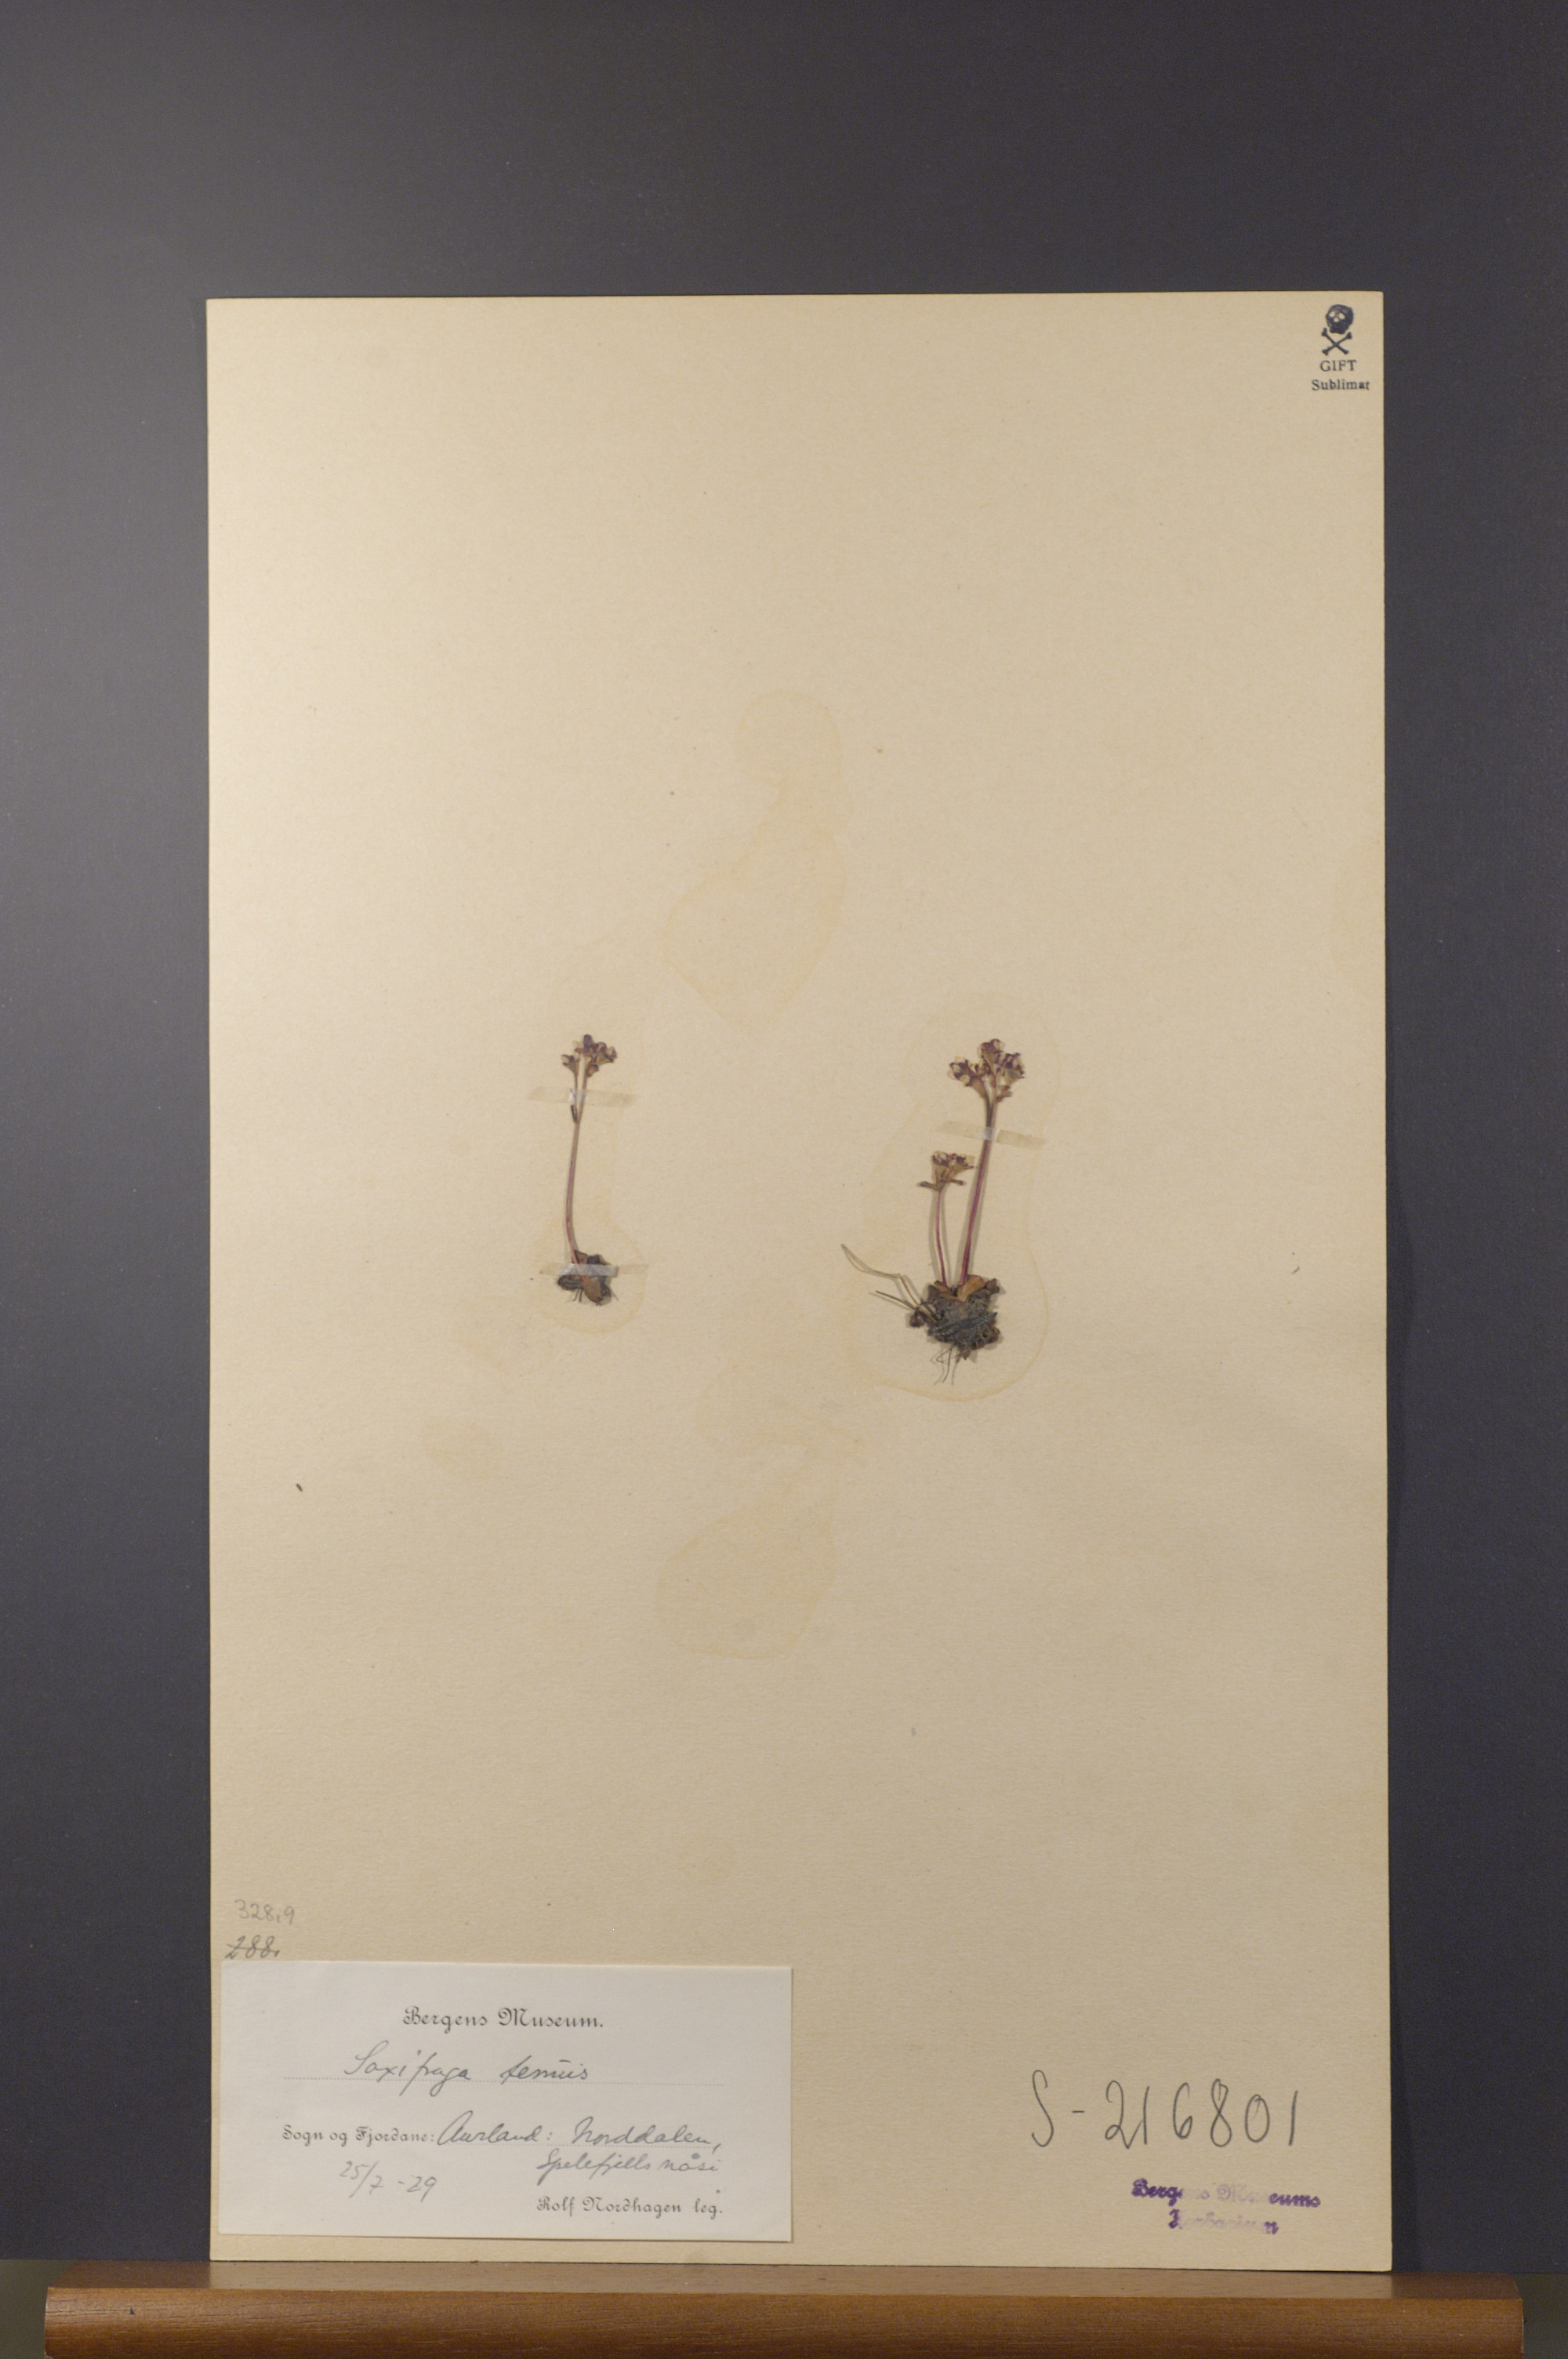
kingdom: Plantae
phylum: Tracheophyta
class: Magnoliopsida
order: Saxifragales
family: Saxifragaceae
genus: Micranthes
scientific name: Micranthes tenuis
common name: Ottertail pass saxifrage
